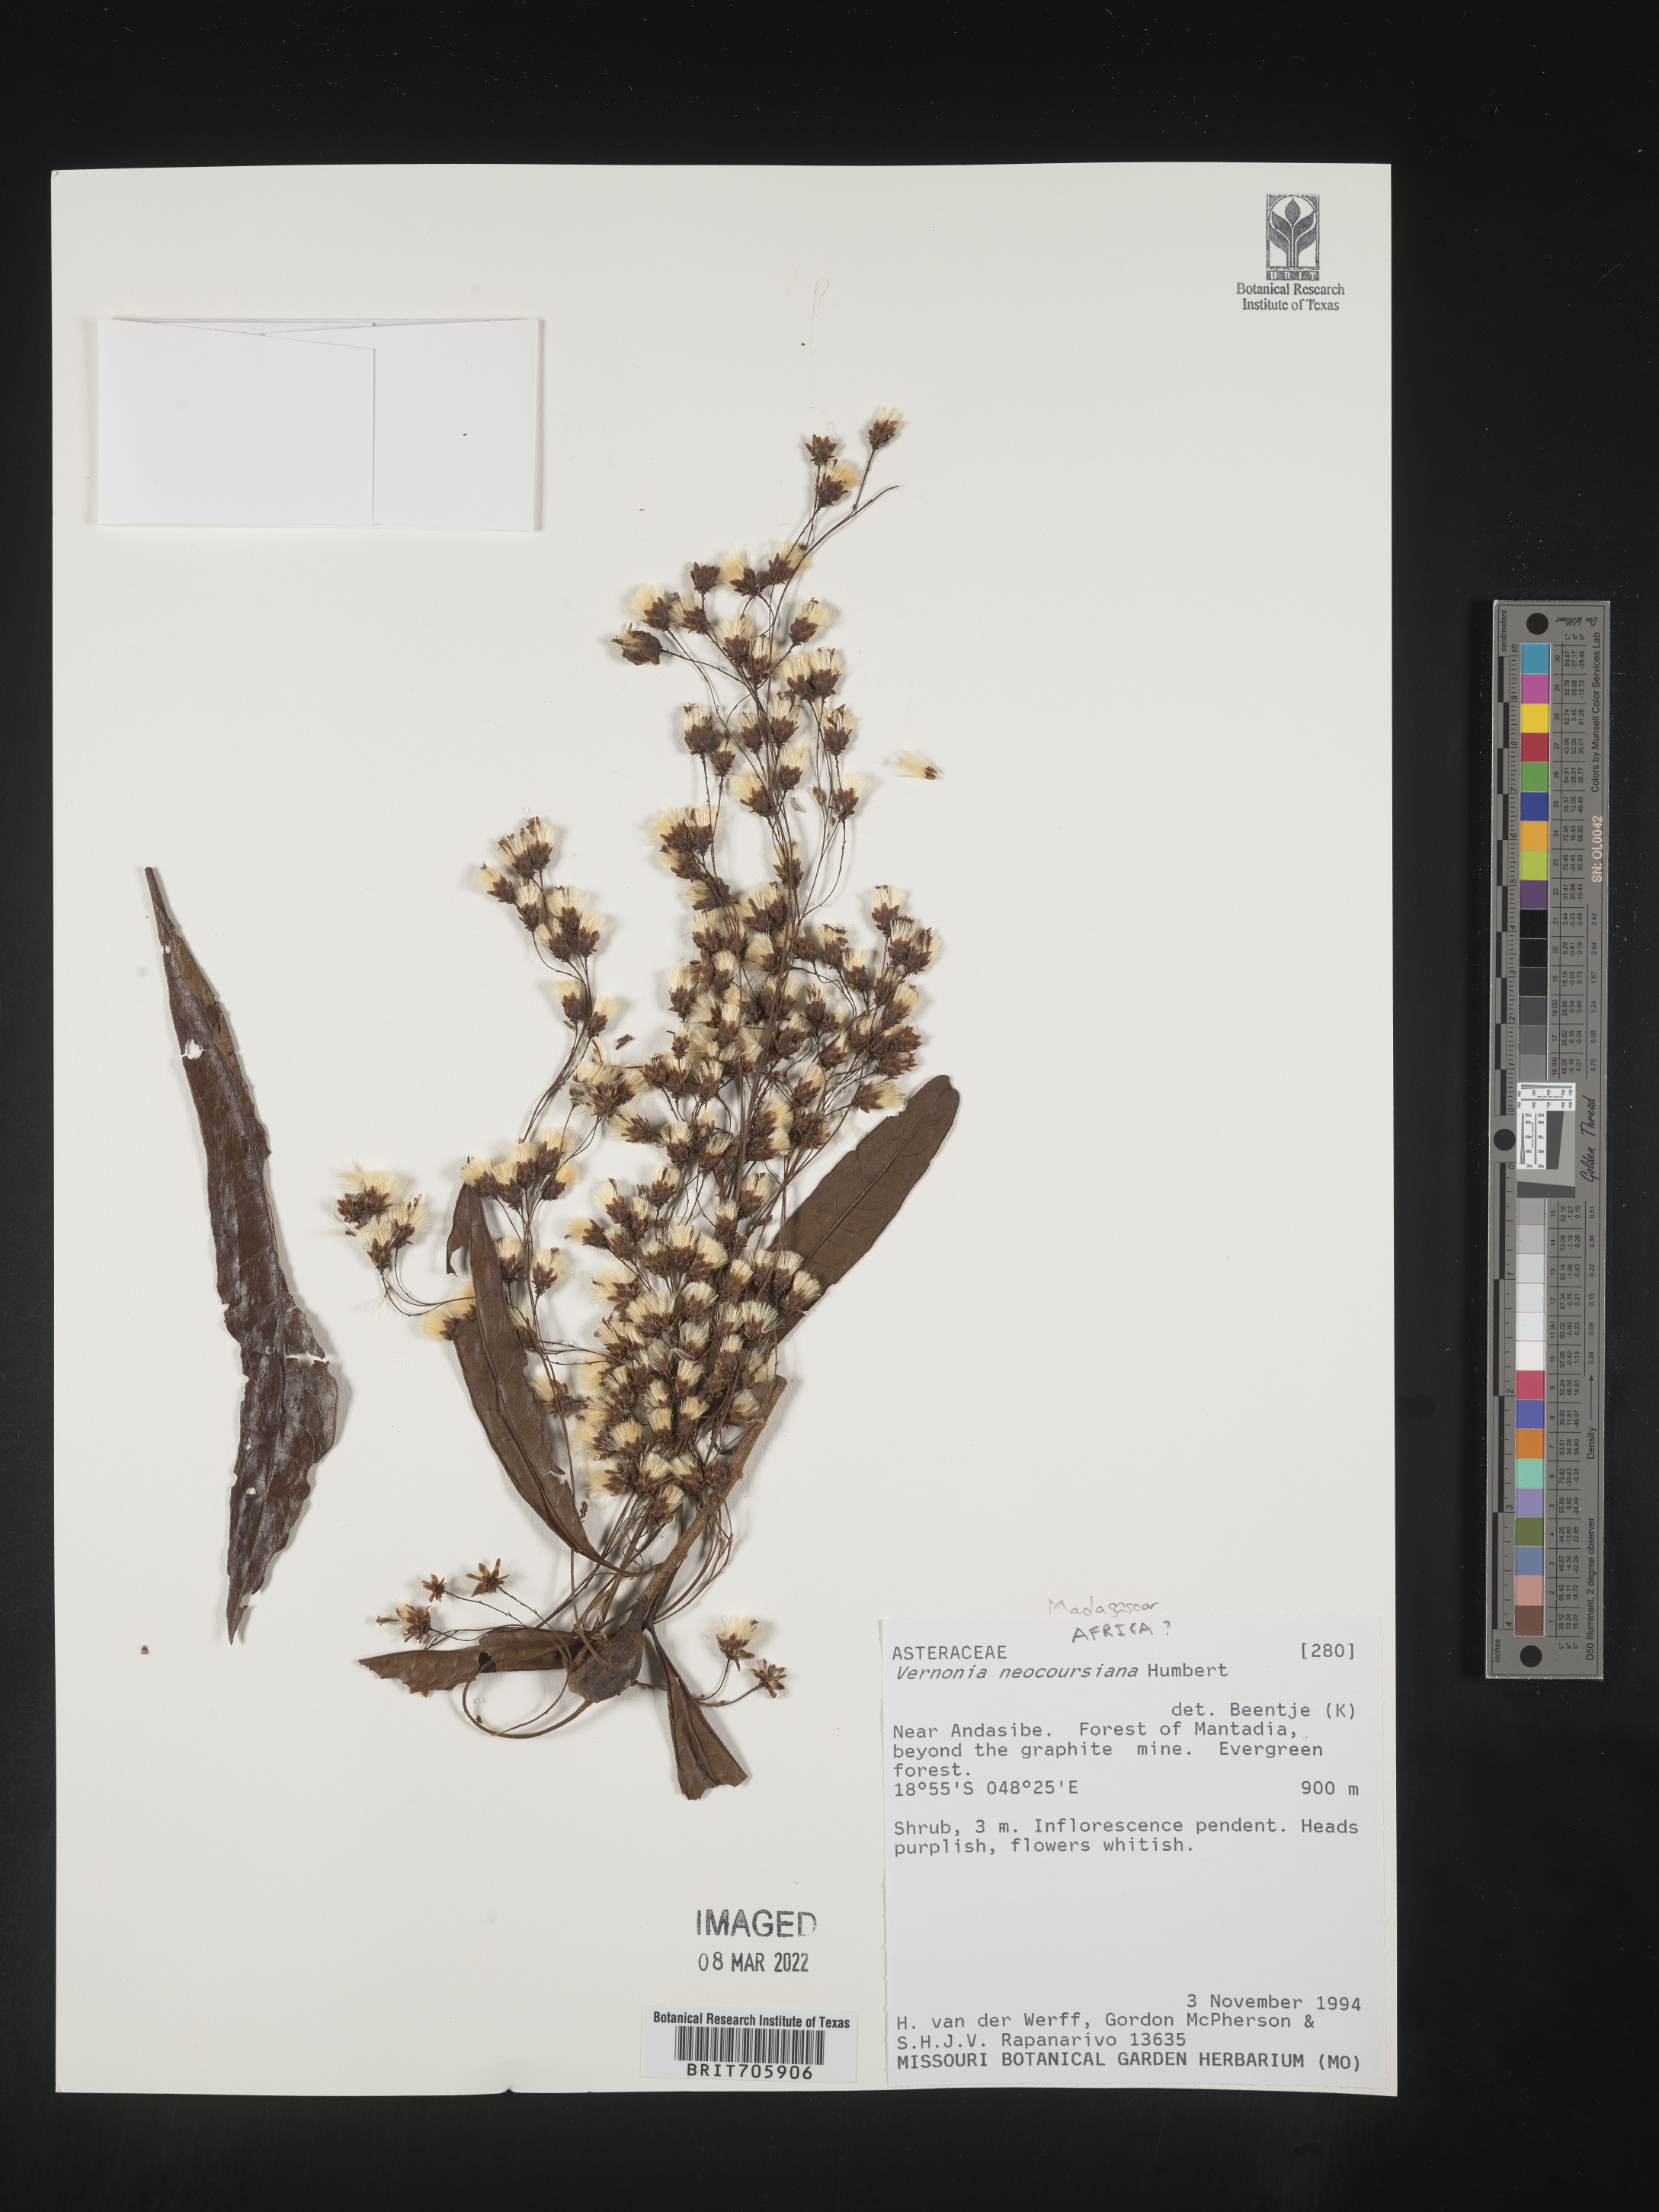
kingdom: Plantae
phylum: Tracheophyta
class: Magnoliopsida
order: Asterales
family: Asteraceae
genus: Vernonia
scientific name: Vernonia
